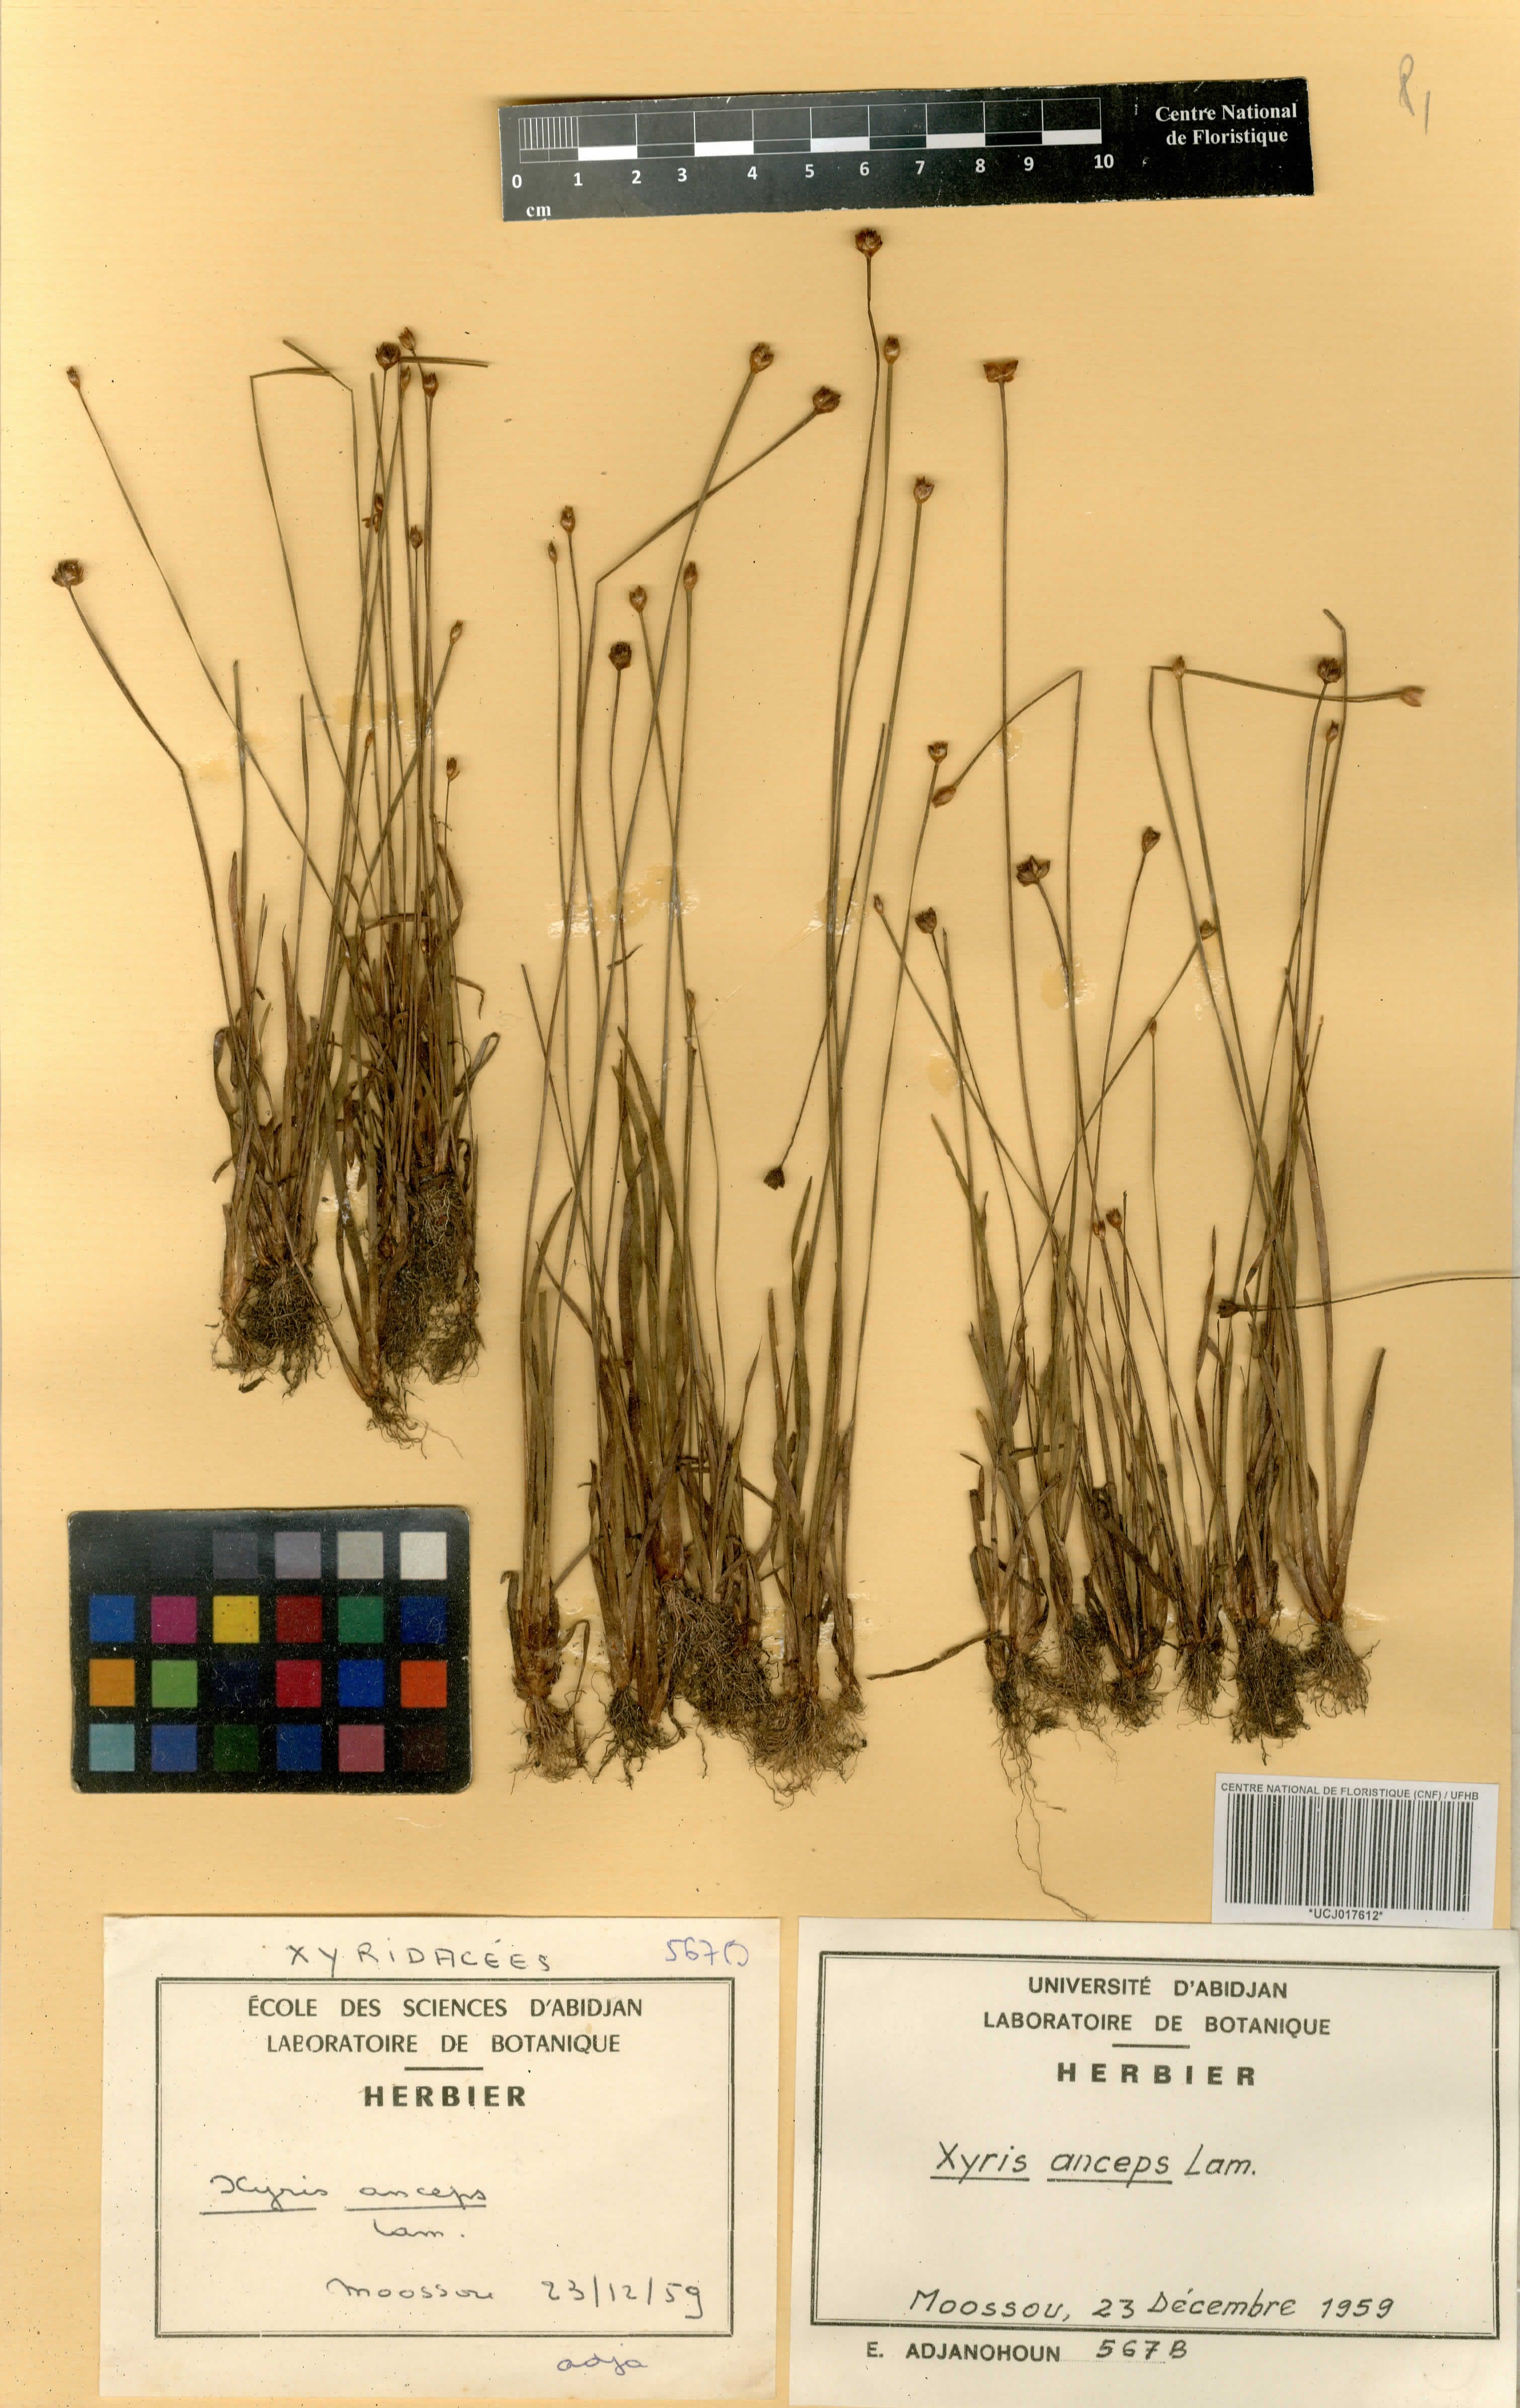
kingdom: Plantae
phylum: Tracheophyta
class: Liliopsida
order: Poales
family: Xyridaceae
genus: Xyris
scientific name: Xyris anceps
